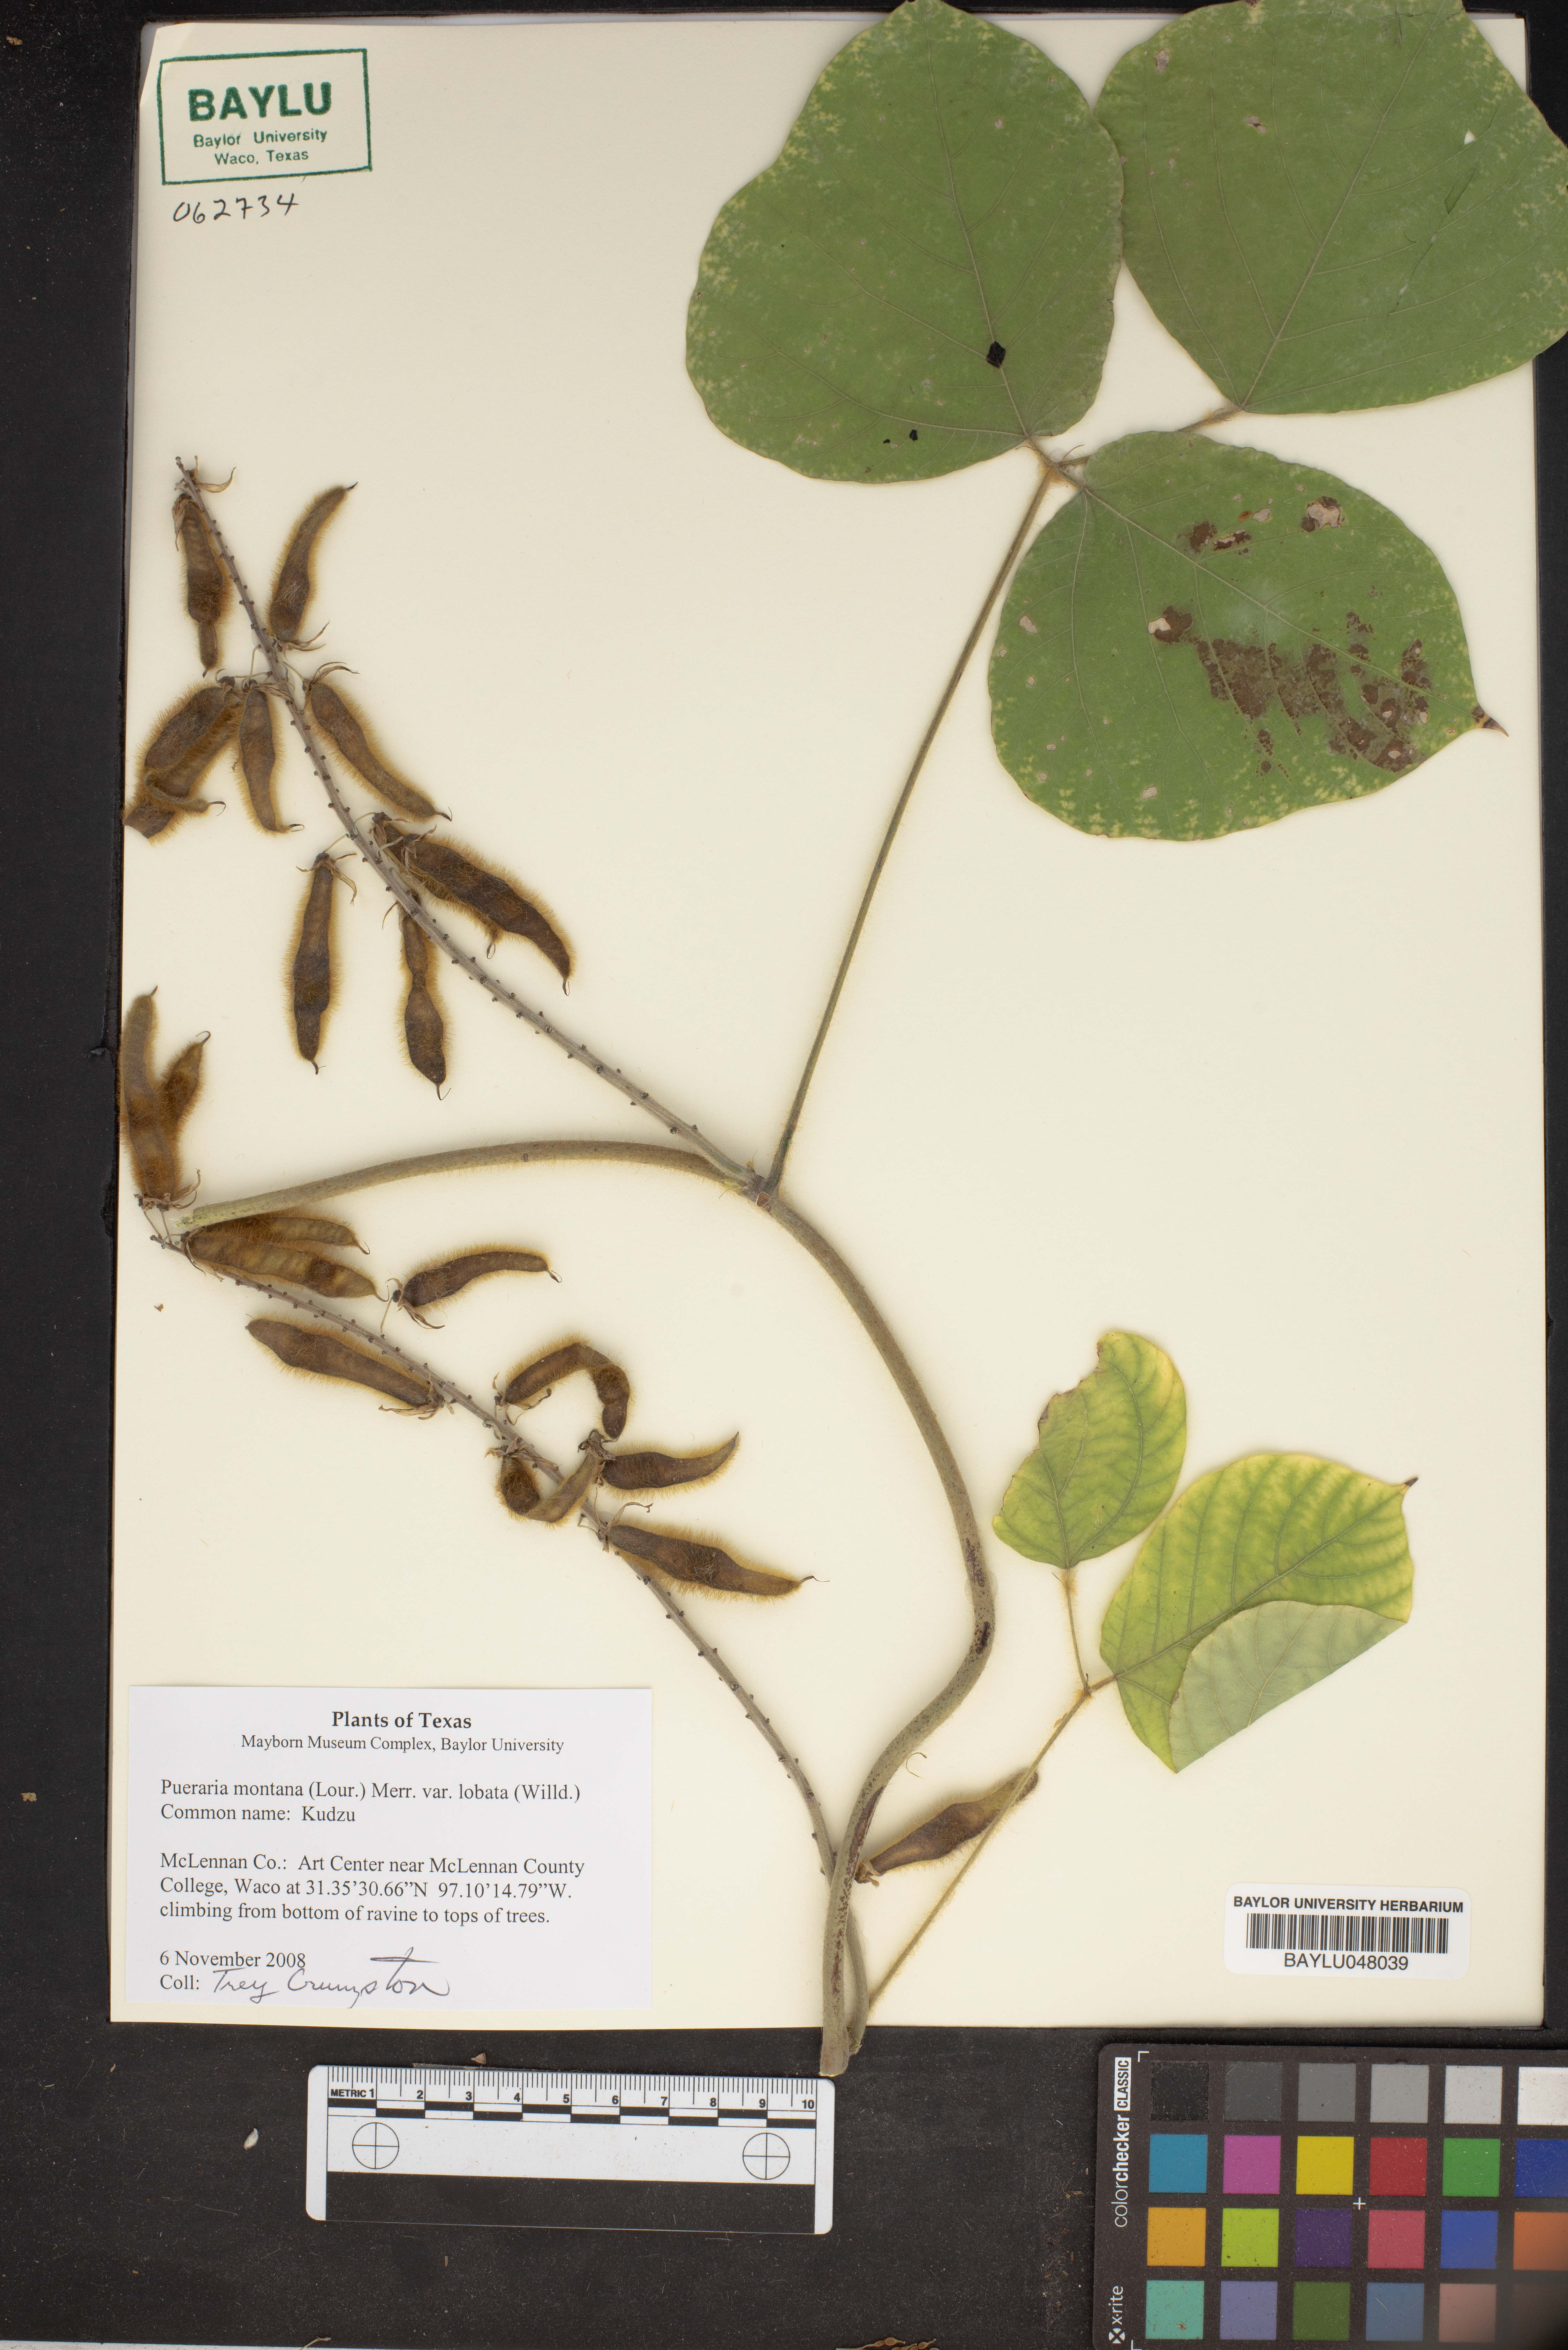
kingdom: Plantae
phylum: Tracheophyta
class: Magnoliopsida
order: Fabales
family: Fabaceae
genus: Pueraria
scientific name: Pueraria montana
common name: Kudzu
